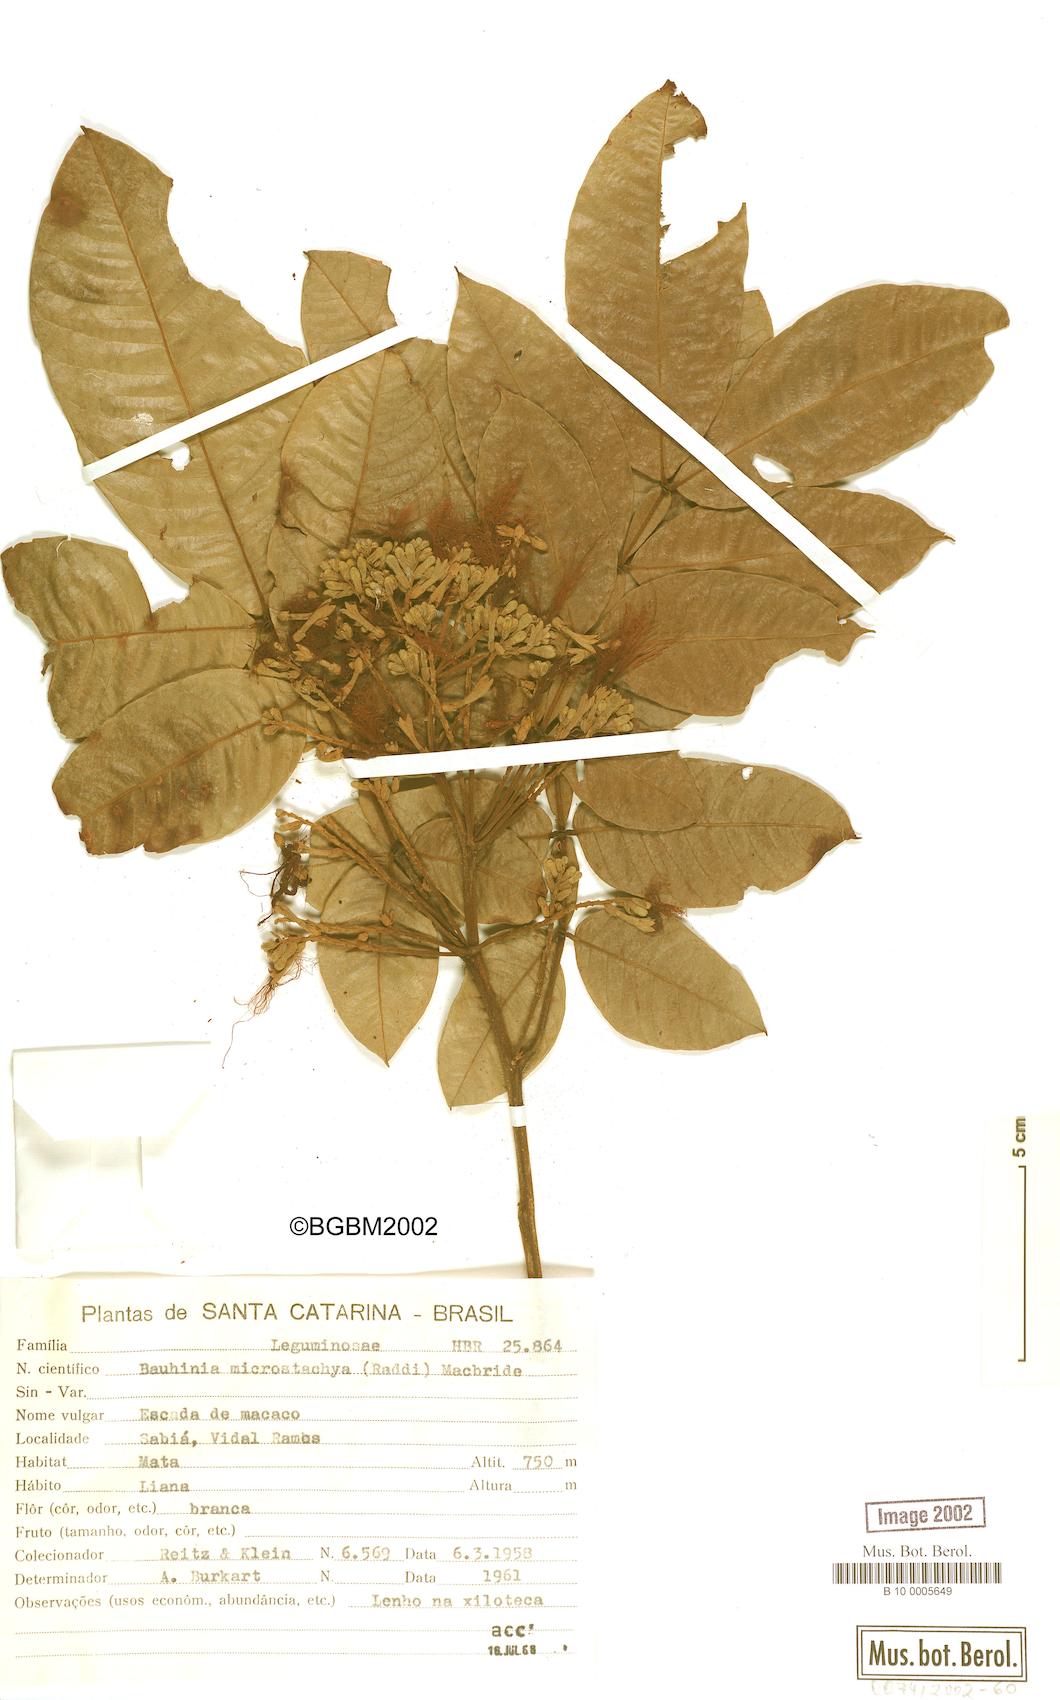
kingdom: Plantae
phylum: Tracheophyta
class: Magnoliopsida
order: Fabales
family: Fabaceae
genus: Schnella
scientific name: Schnella microstachya
